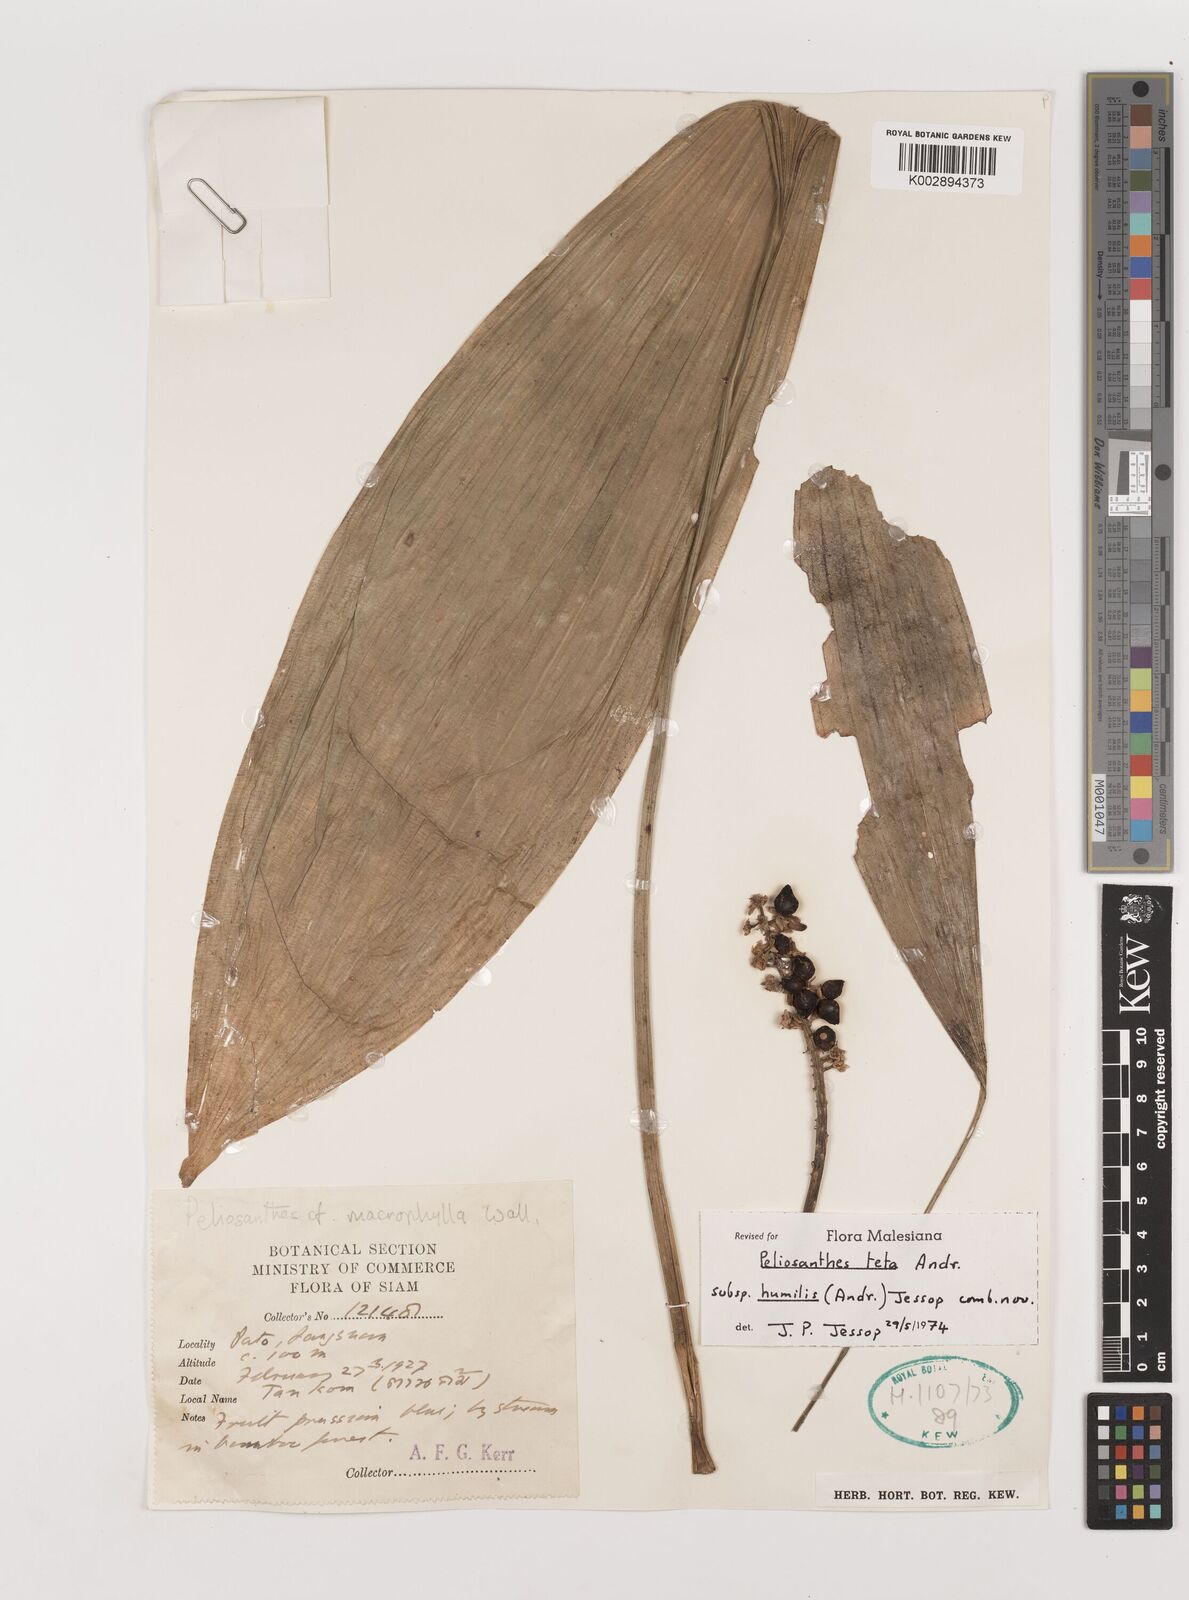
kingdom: Plantae
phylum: Tracheophyta
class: Liliopsida
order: Asparagales
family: Asparagaceae
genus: Peliosanthes
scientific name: Peliosanthes teta
